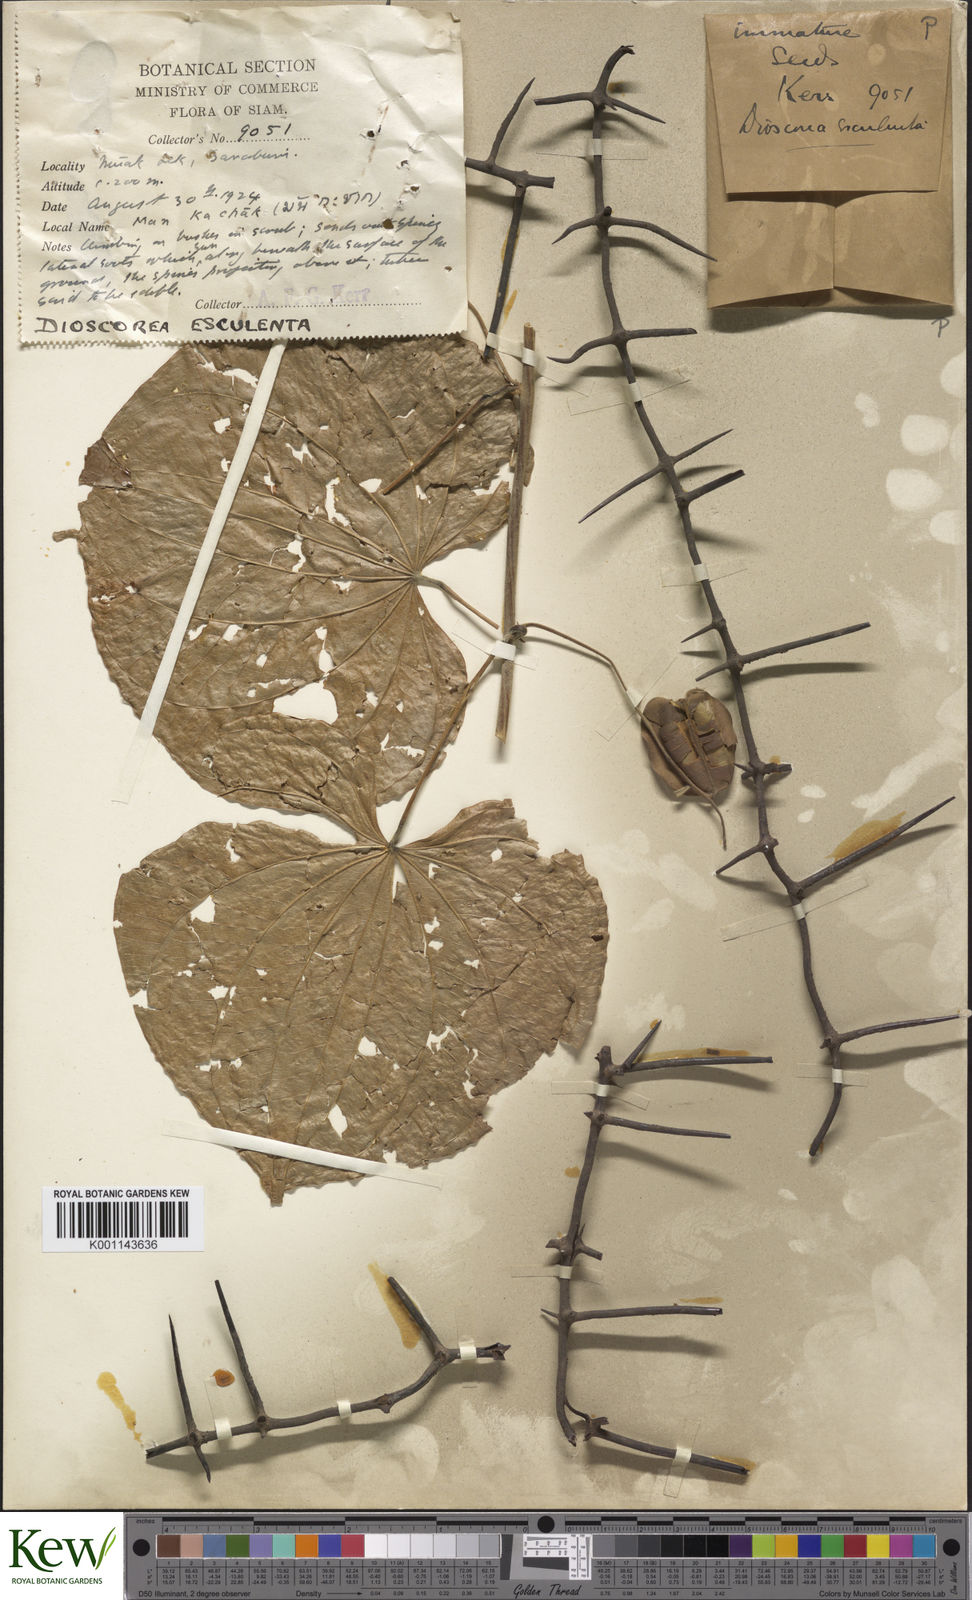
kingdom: Plantae
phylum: Tracheophyta
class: Liliopsida
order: Dioscoreales
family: Dioscoreaceae
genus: Dioscorea
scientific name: Dioscorea esculenta
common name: Chinese yam
